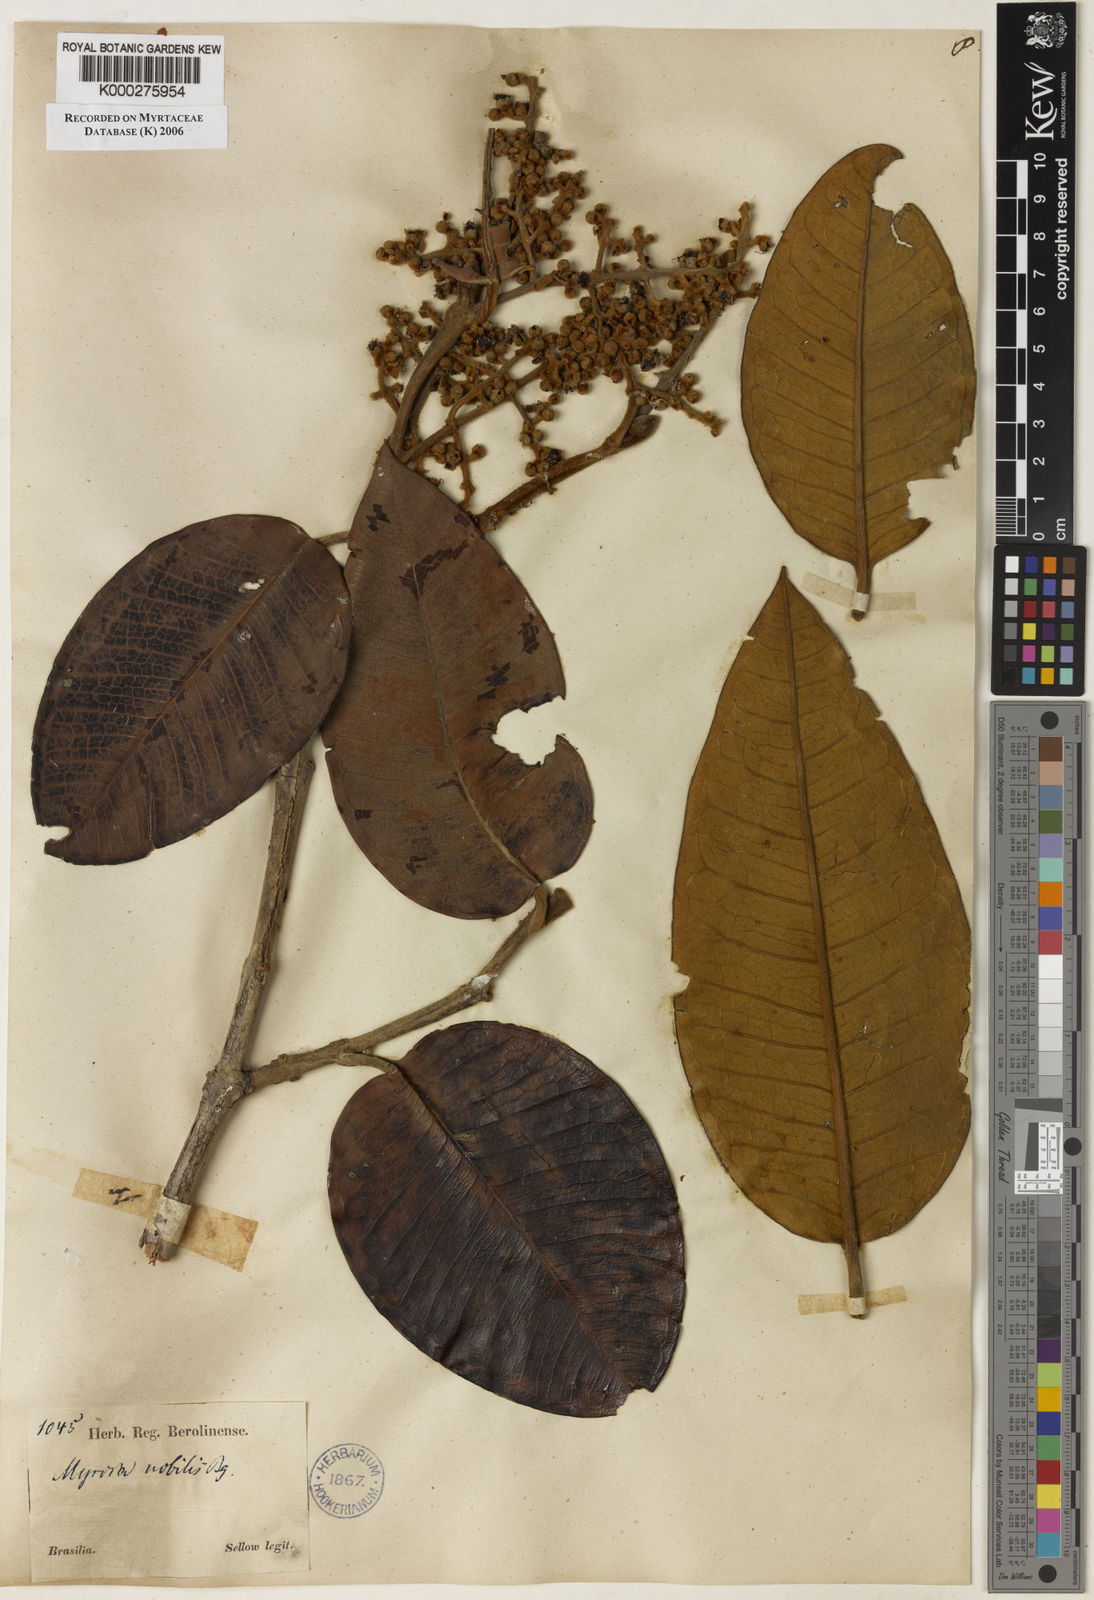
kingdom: Plantae
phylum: Tracheophyta
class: Magnoliopsida
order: Myrtales
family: Myrtaceae
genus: Myrcia
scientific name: Myrcia lutescens
